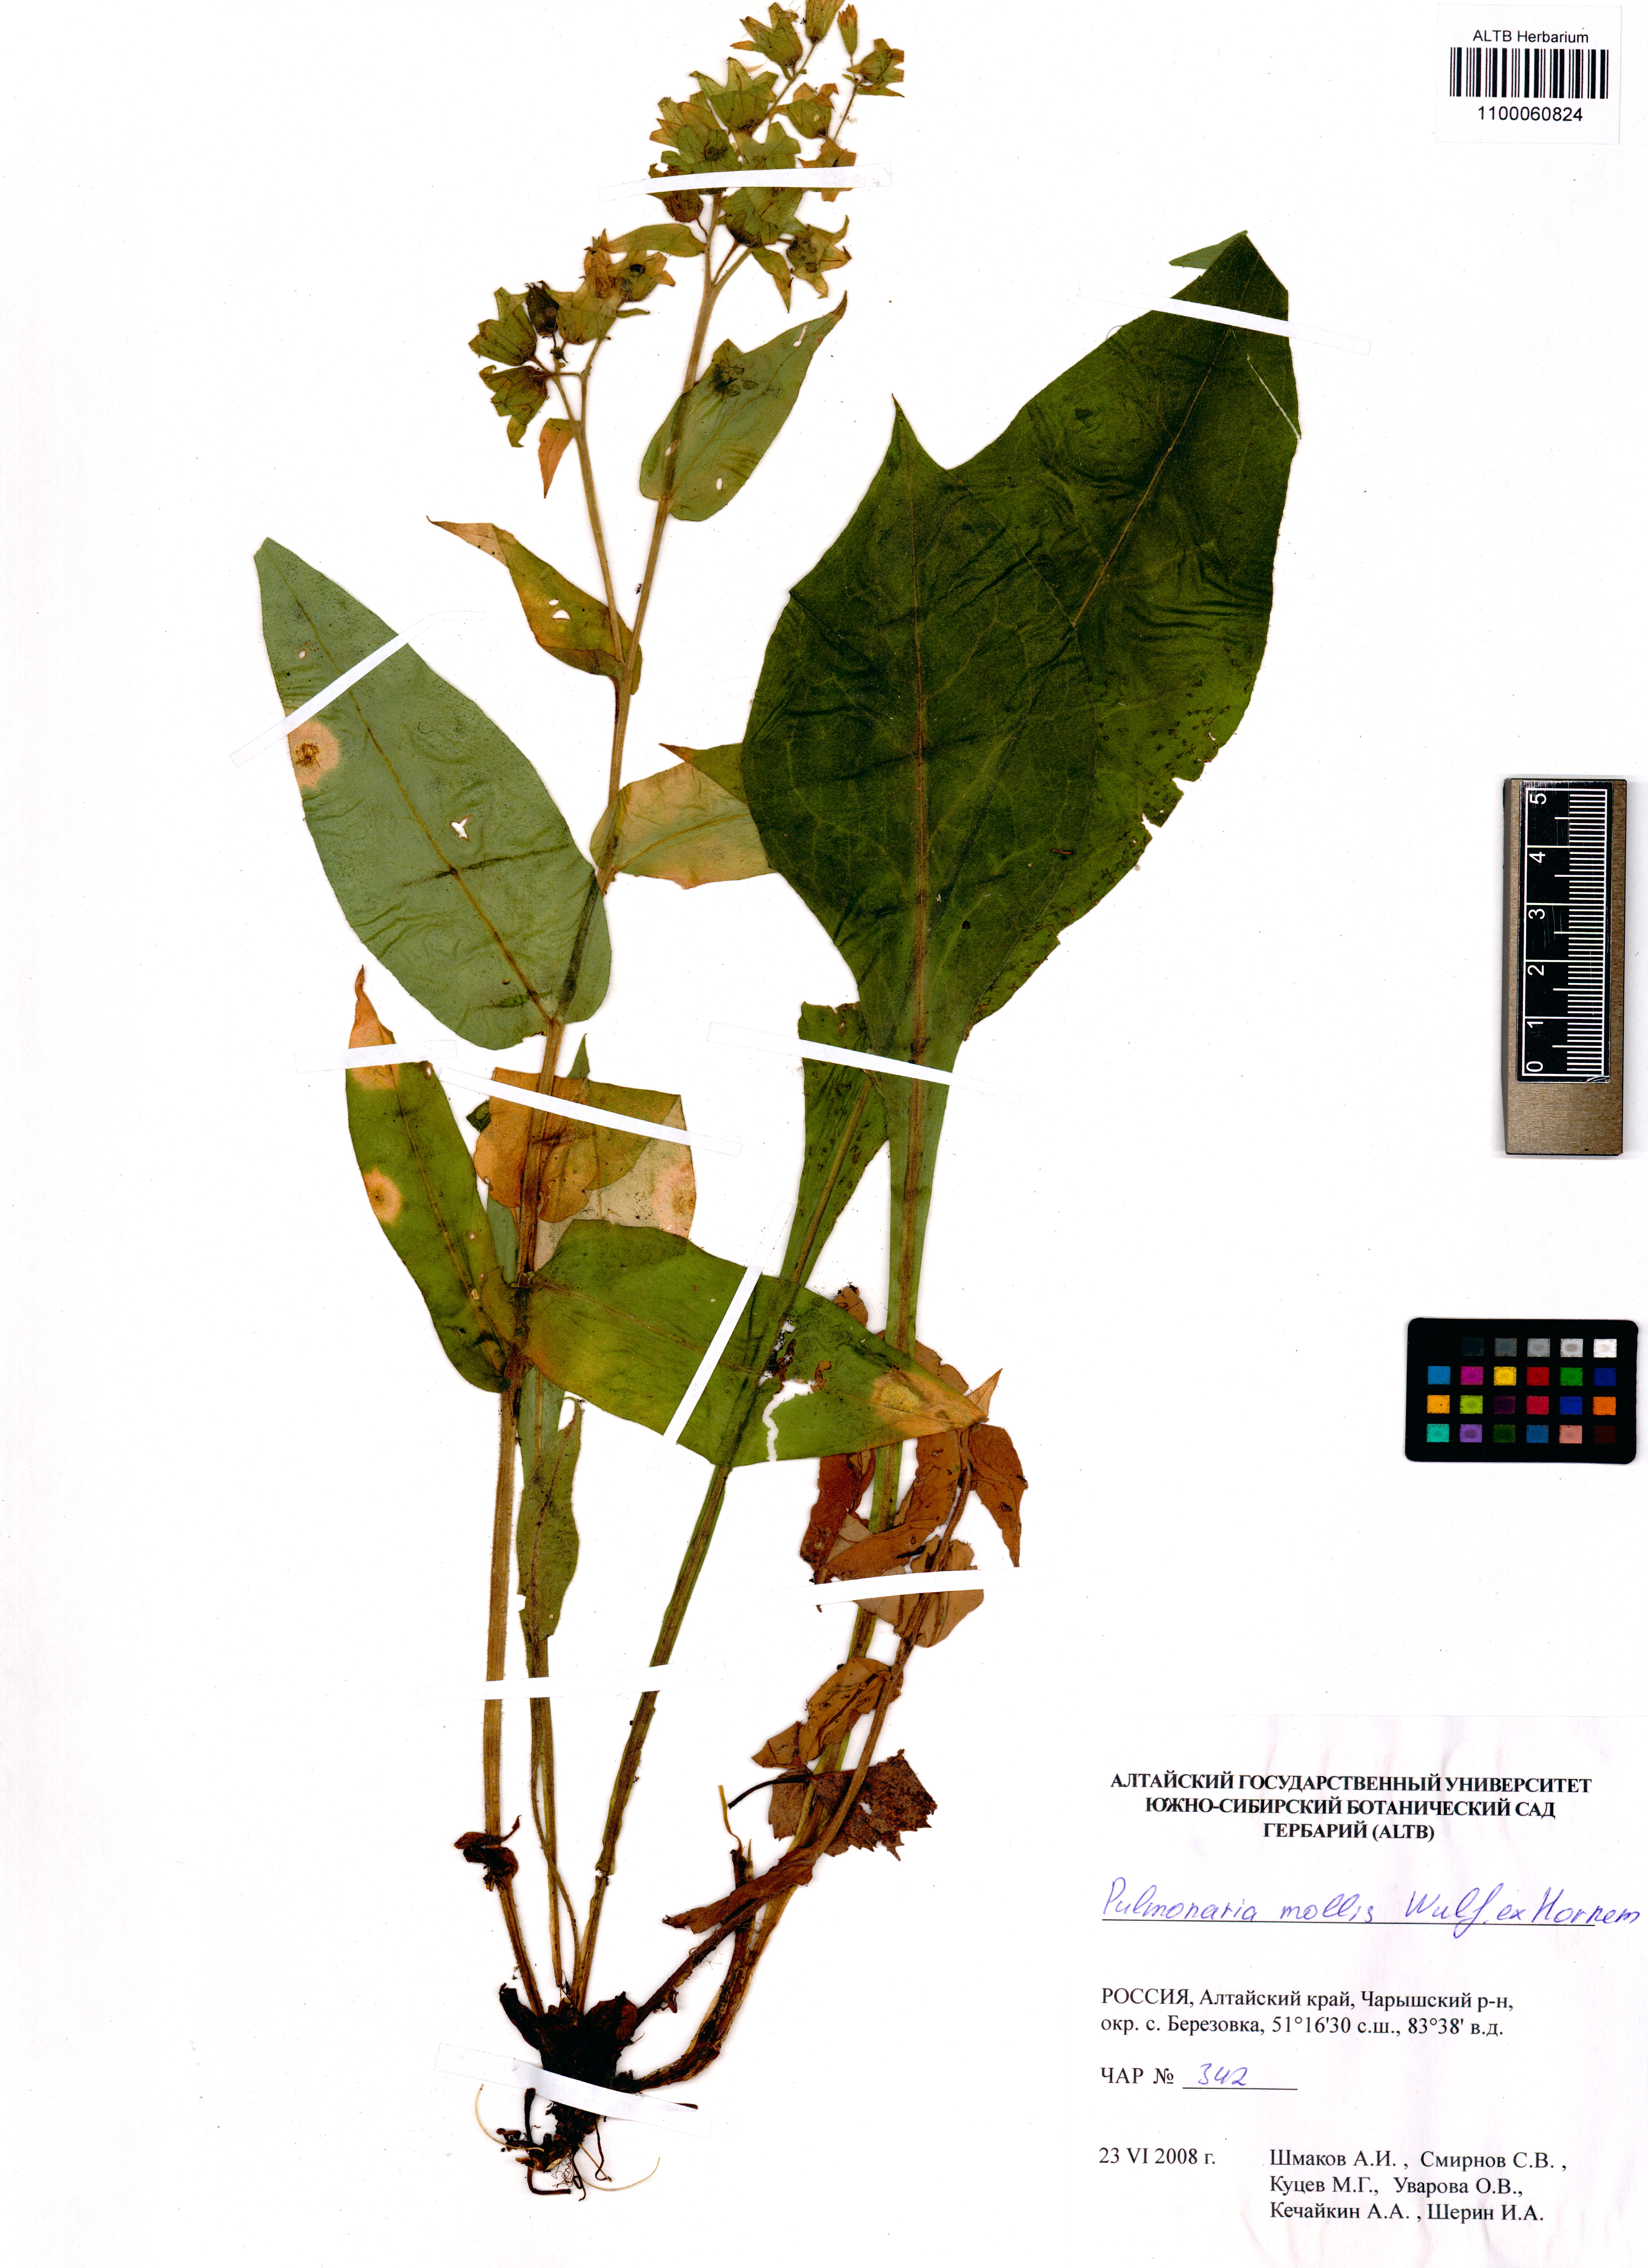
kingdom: Plantae
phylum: Tracheophyta
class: Magnoliopsida
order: Boraginales
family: Boraginaceae
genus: Pulmonaria
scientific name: Pulmonaria mollis
